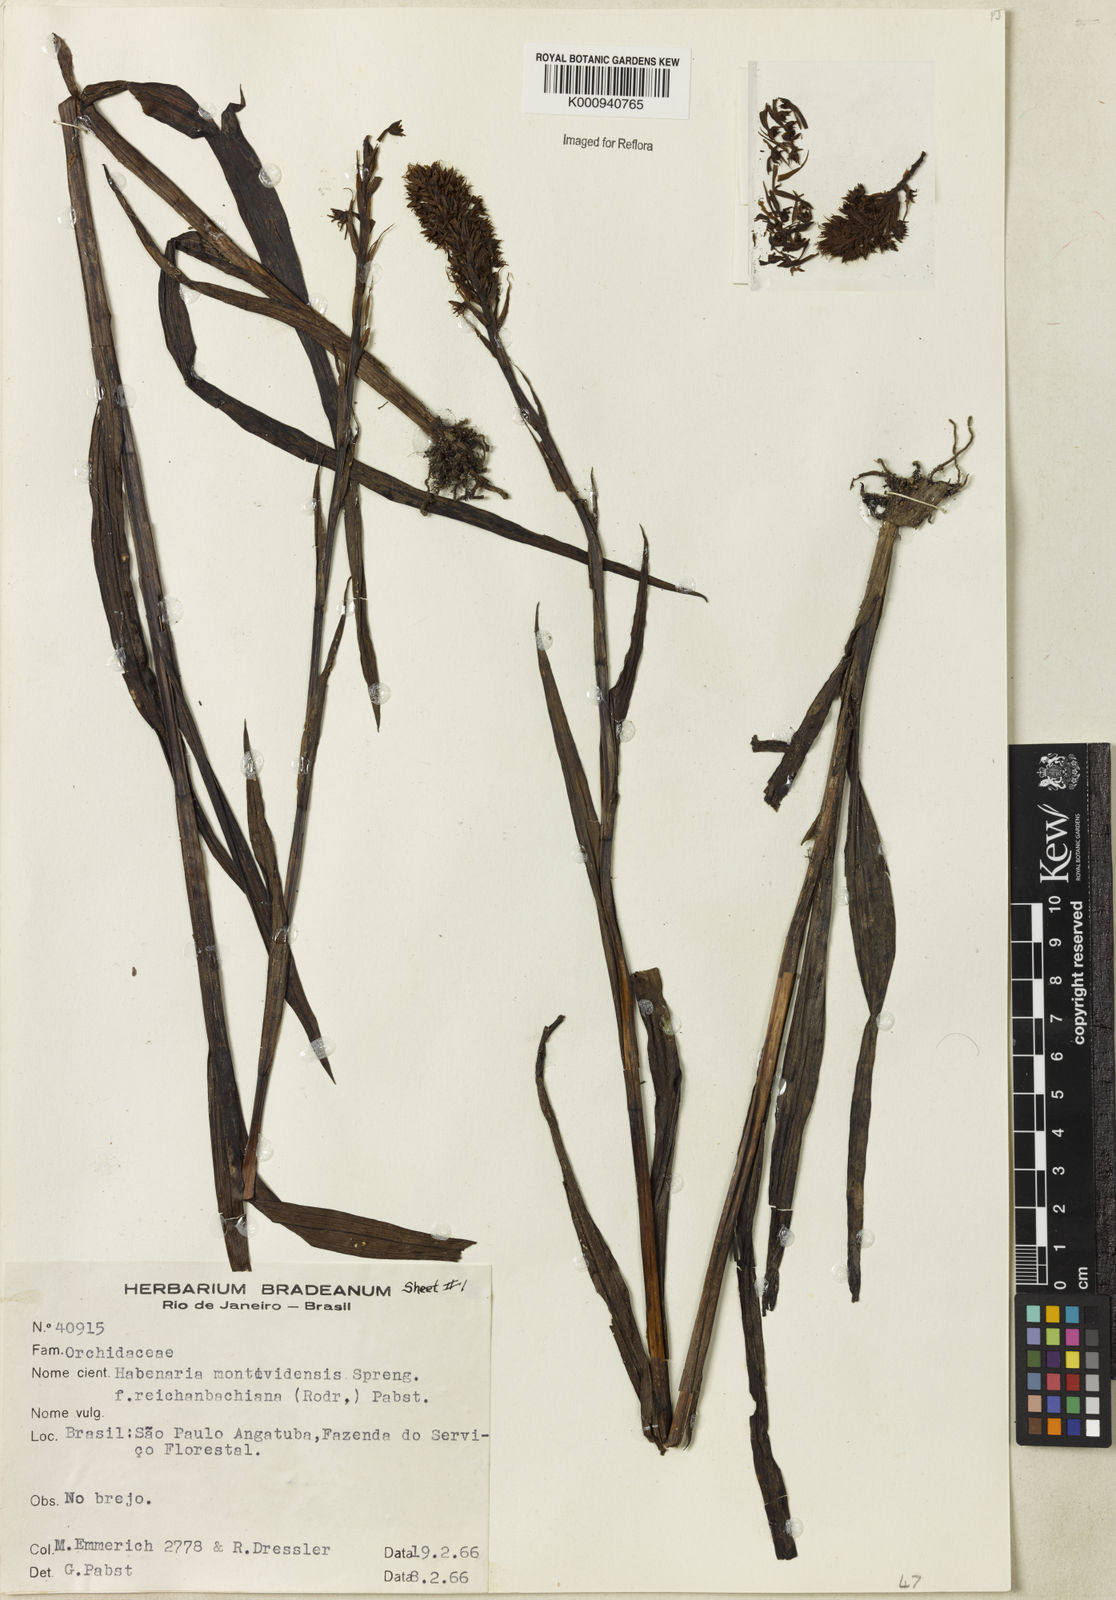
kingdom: Plantae
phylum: Tracheophyta
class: Liliopsida
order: Asparagales
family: Orchidaceae
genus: Habenaria
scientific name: Habenaria parviflora
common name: Small flowered habenaria
